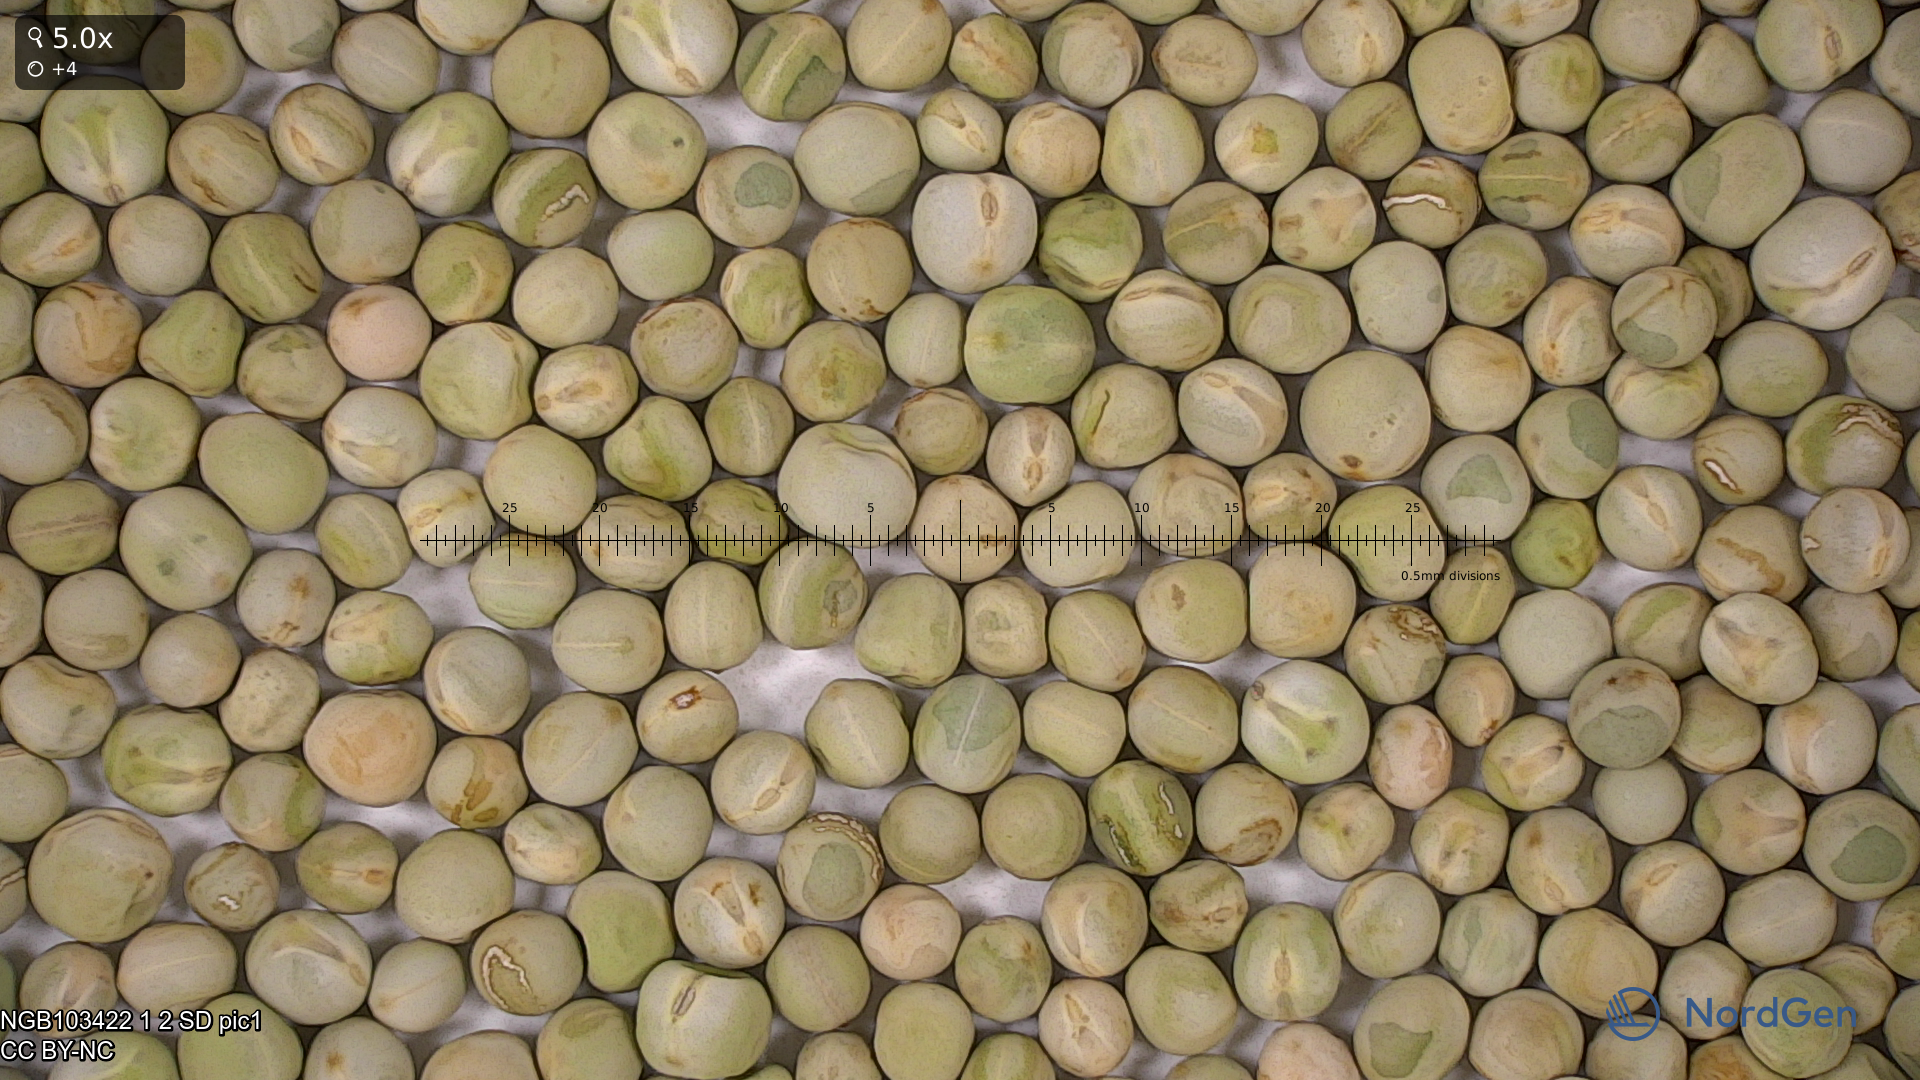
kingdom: Plantae
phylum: Tracheophyta
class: Magnoliopsida
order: Fabales
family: Fabaceae
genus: Lathyrus
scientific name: Lathyrus oleraceus
